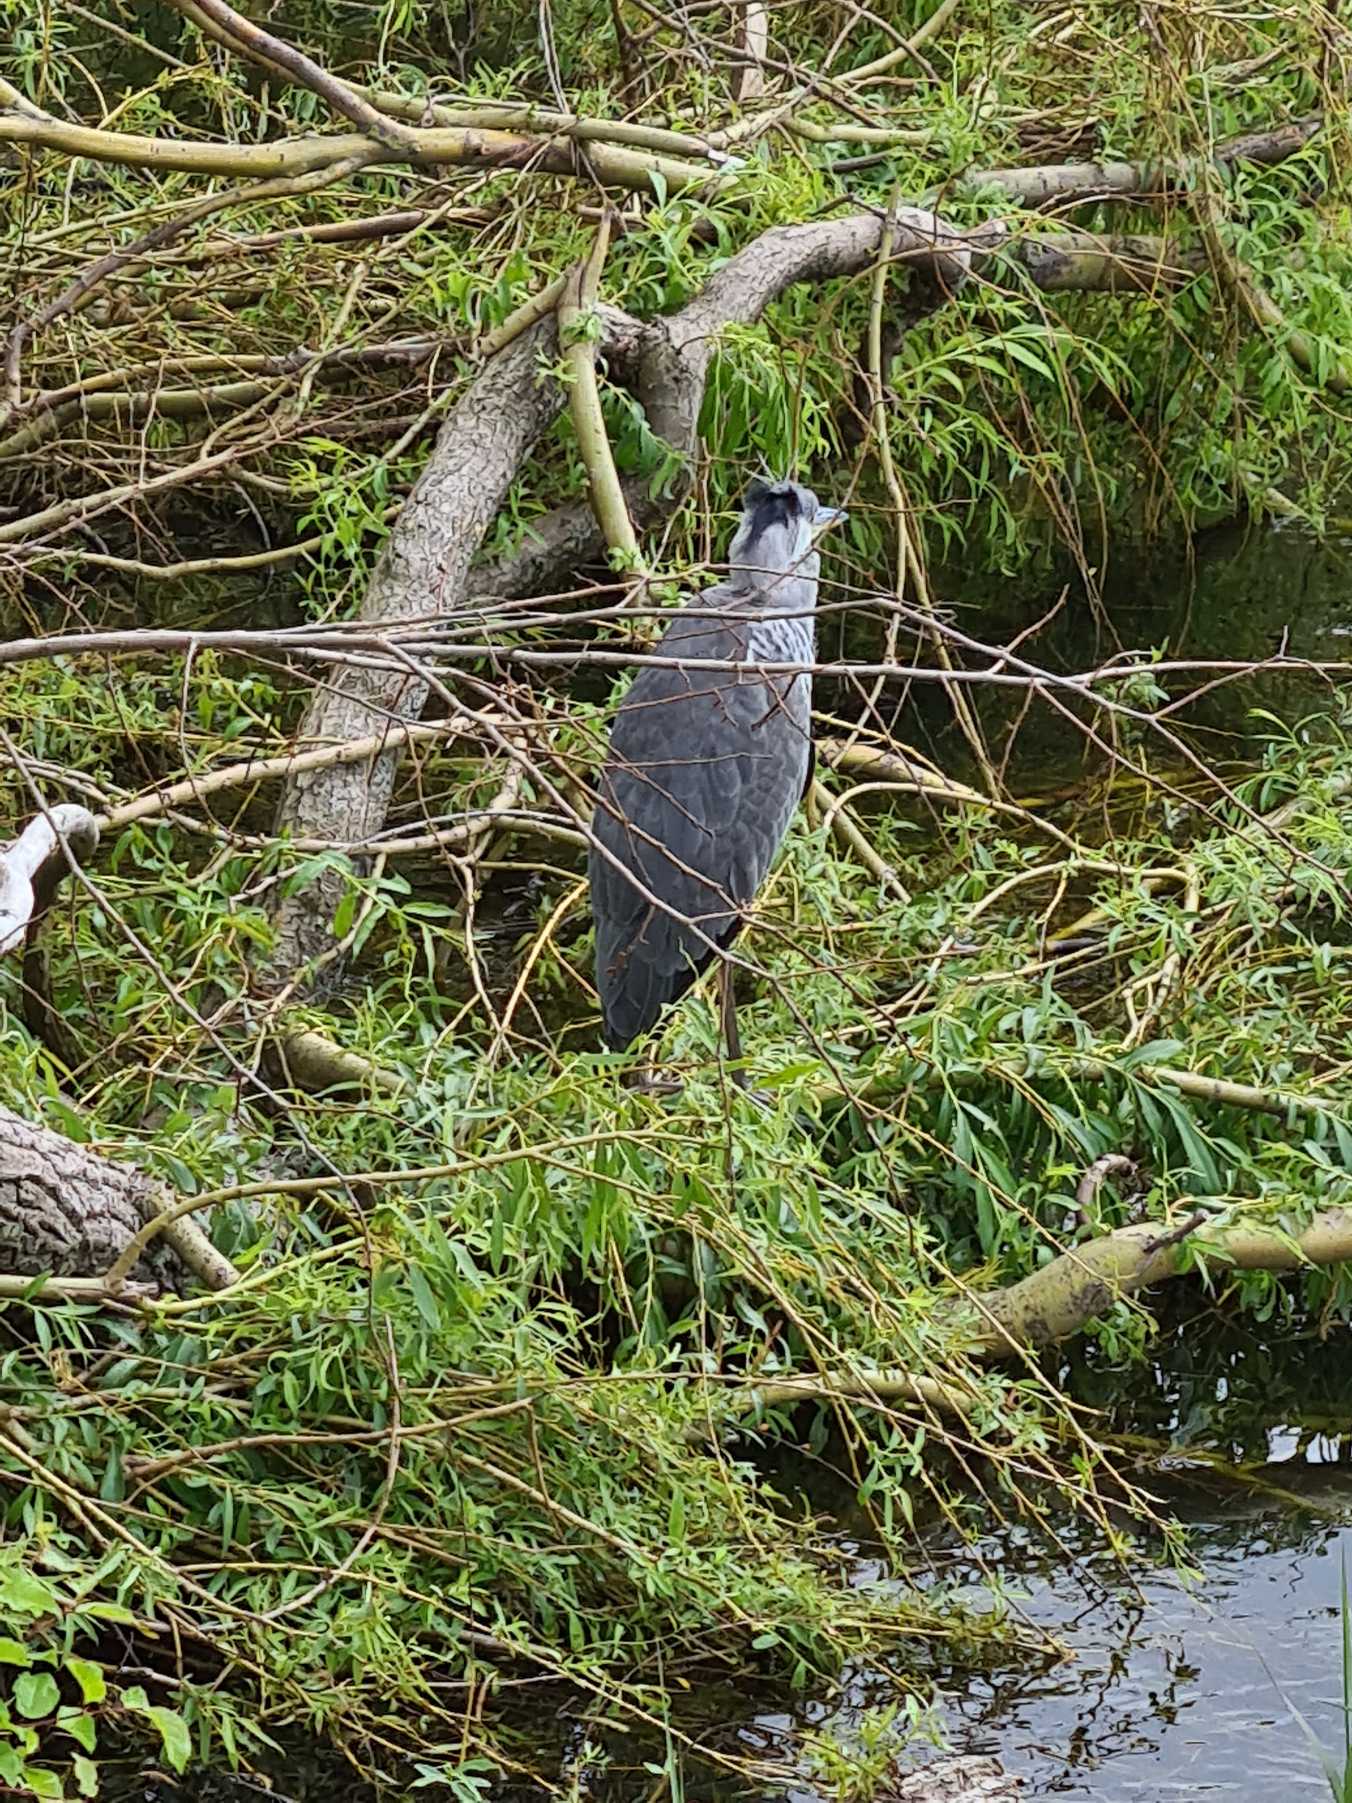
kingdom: Animalia
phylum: Chordata
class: Aves
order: Pelecaniformes
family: Ardeidae
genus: Ardea
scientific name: Ardea cinerea
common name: Fiskehejre
